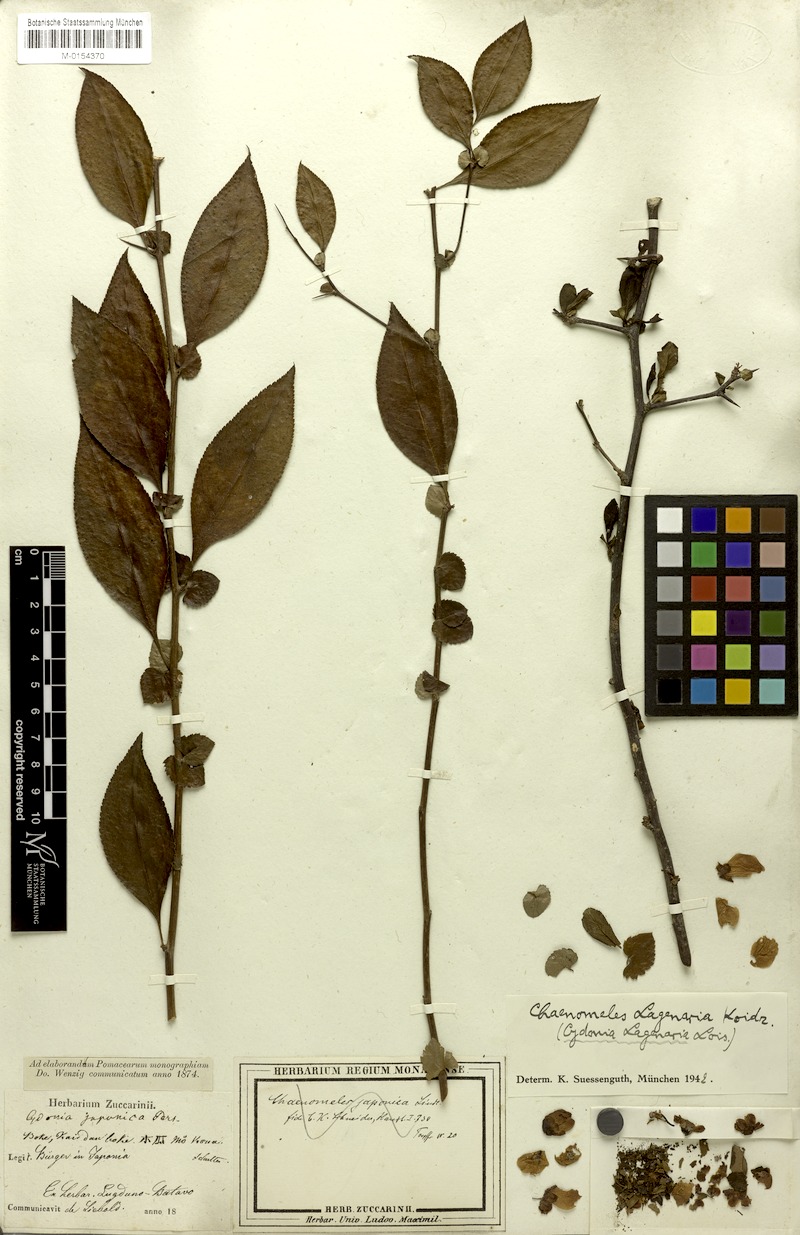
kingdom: Plantae
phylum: Tracheophyta
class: Magnoliopsida
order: Rosales
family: Rosaceae
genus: Chaenomeles
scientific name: Chaenomeles
